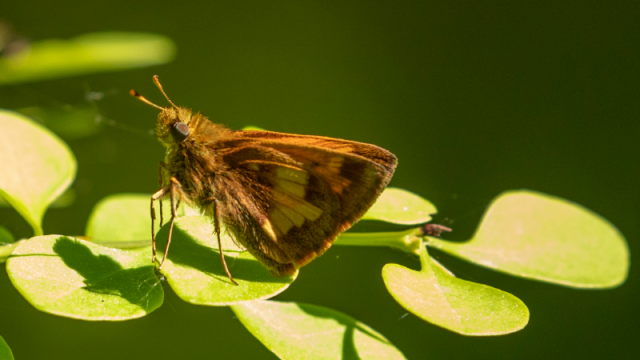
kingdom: Animalia
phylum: Arthropoda
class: Insecta
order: Lepidoptera
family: Hesperiidae
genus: Lon
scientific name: Lon hobomok
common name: Hobomok Skipper
